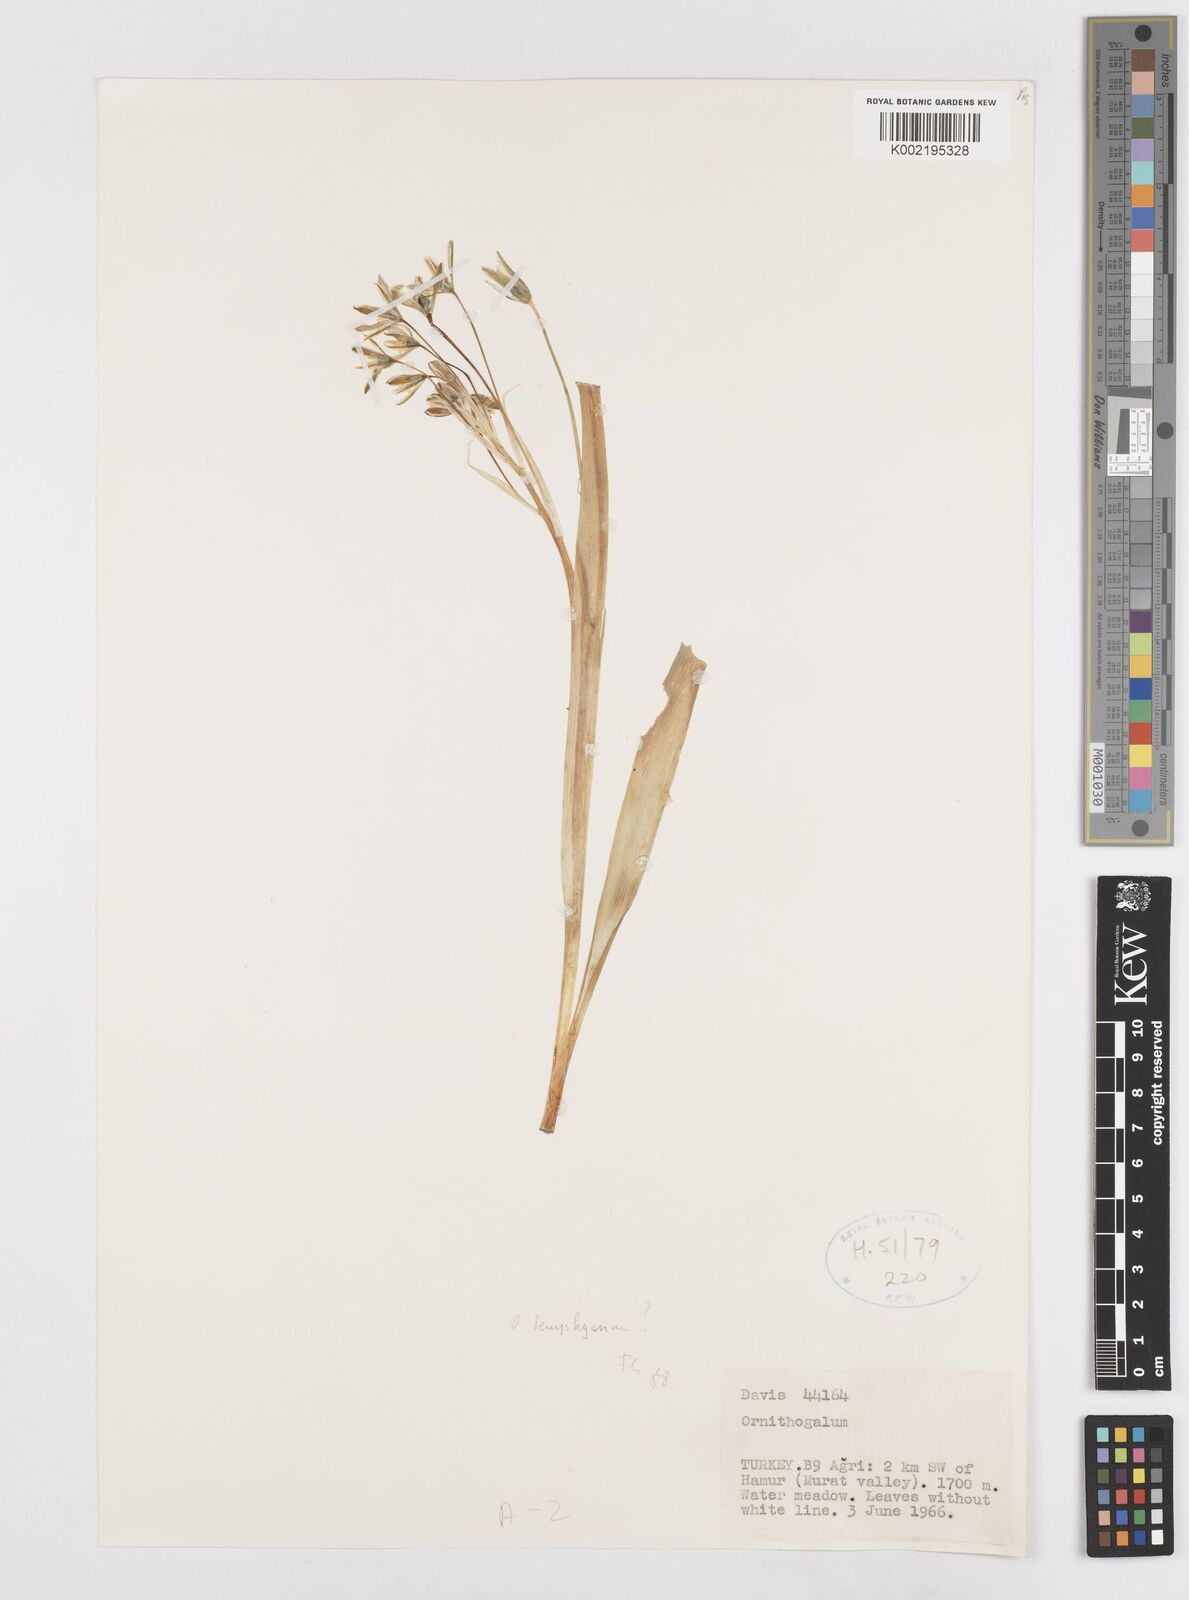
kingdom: Plantae
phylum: Tracheophyta
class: Liliopsida
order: Asparagales
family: Asparagaceae
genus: Ornithogalum
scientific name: Ornithogalum graciliflorum
